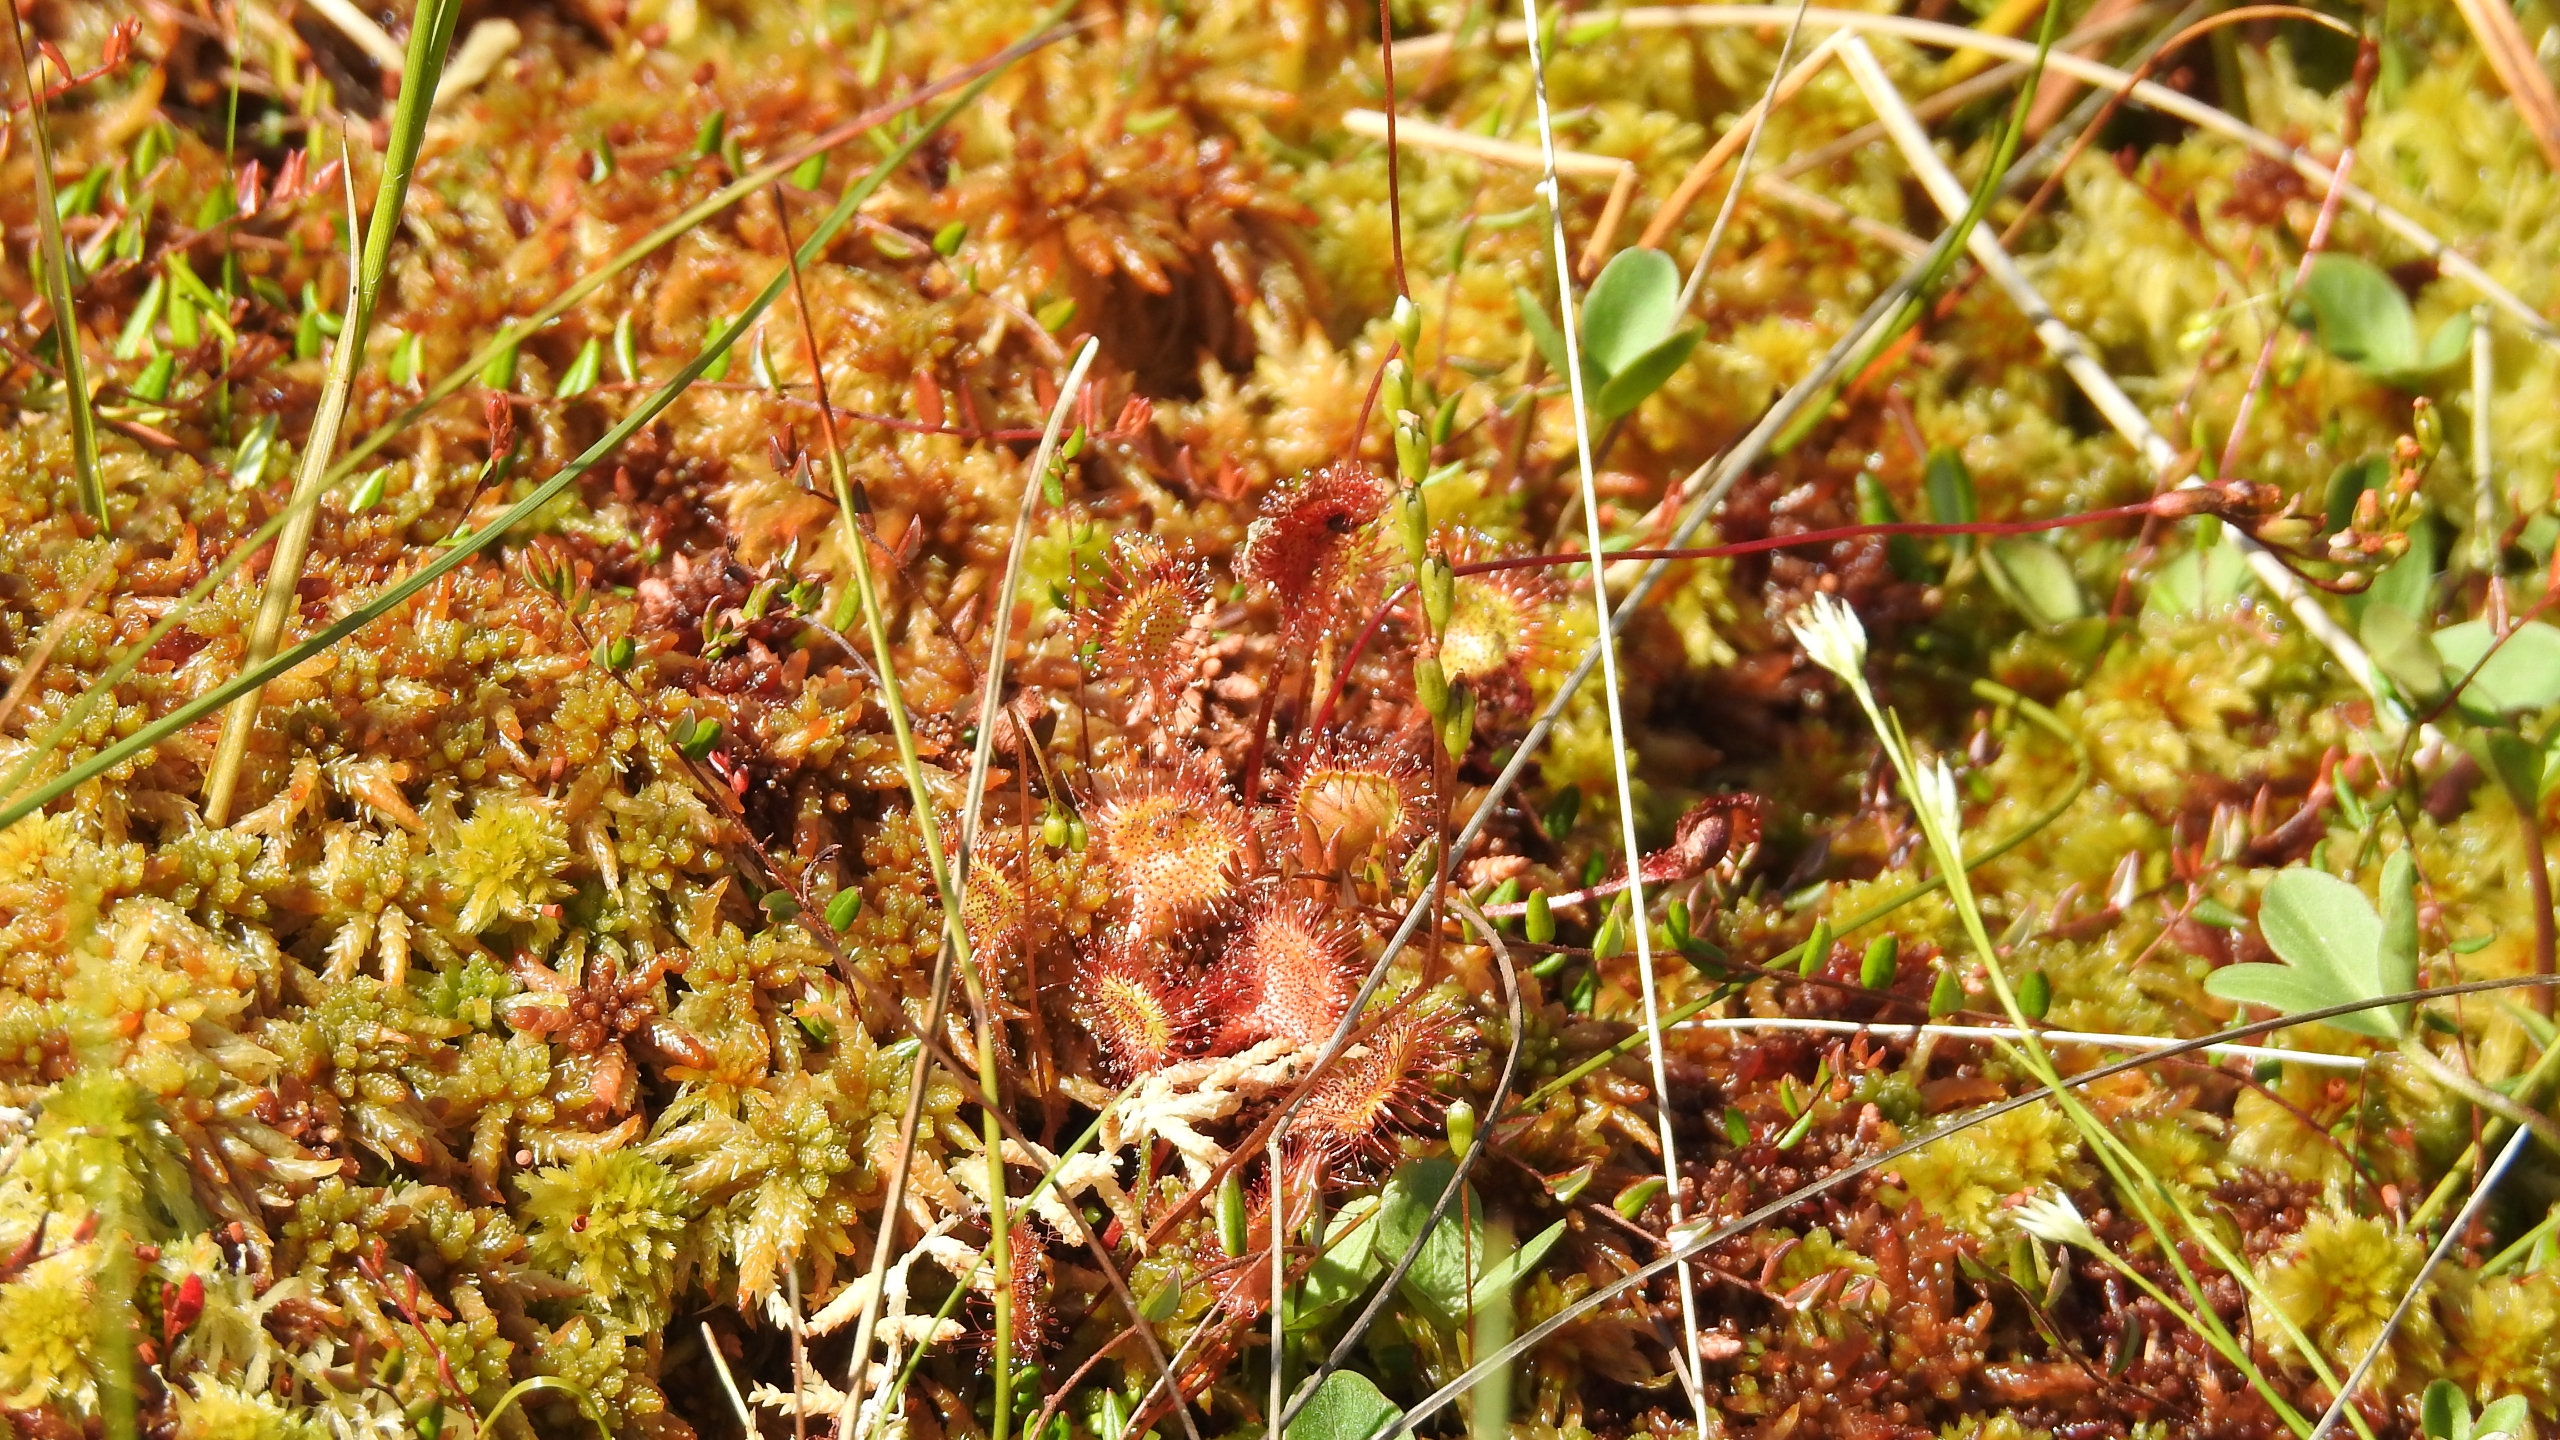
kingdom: Plantae
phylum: Tracheophyta
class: Magnoliopsida
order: Caryophyllales
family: Droseraceae
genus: Drosera
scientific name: Drosera rotundifolia
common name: Rundbladet soldug
